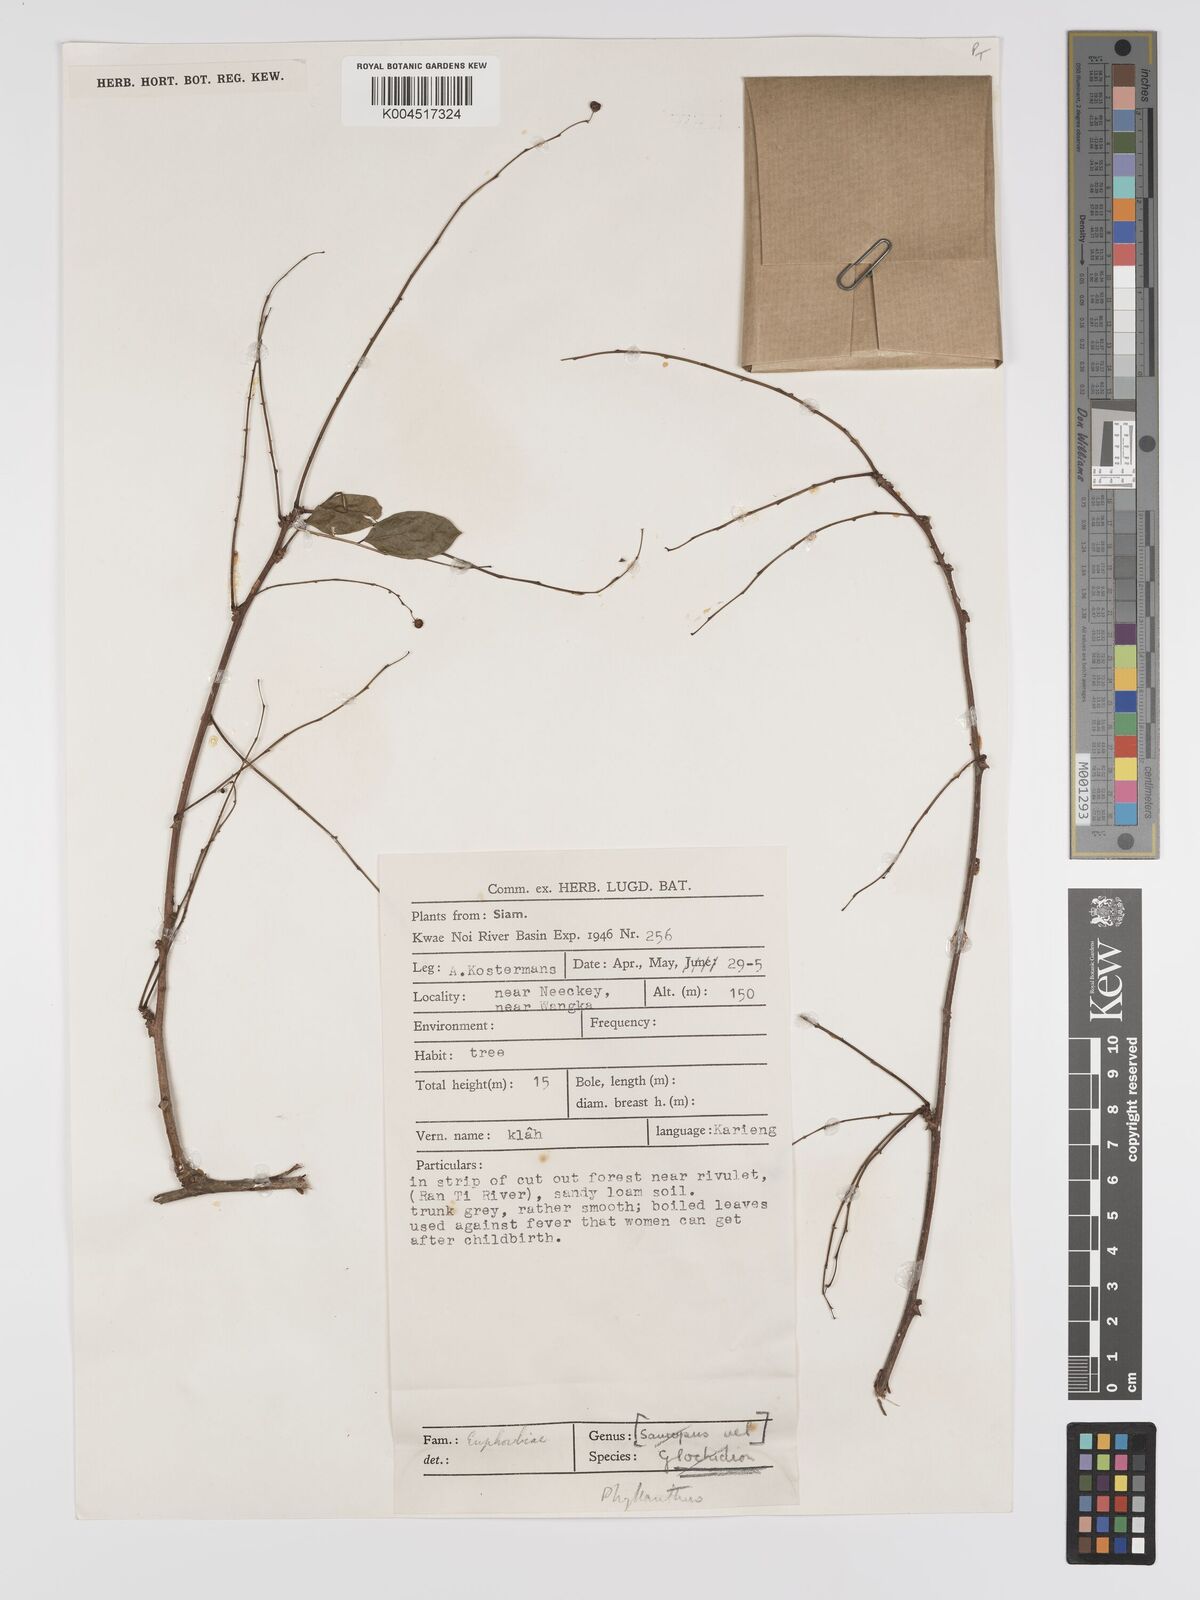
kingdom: Plantae
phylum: Tracheophyta
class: Magnoliopsida
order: Malpighiales
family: Phyllanthaceae
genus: Phyllanthus
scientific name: Phyllanthus reticulatus
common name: Potato bush
